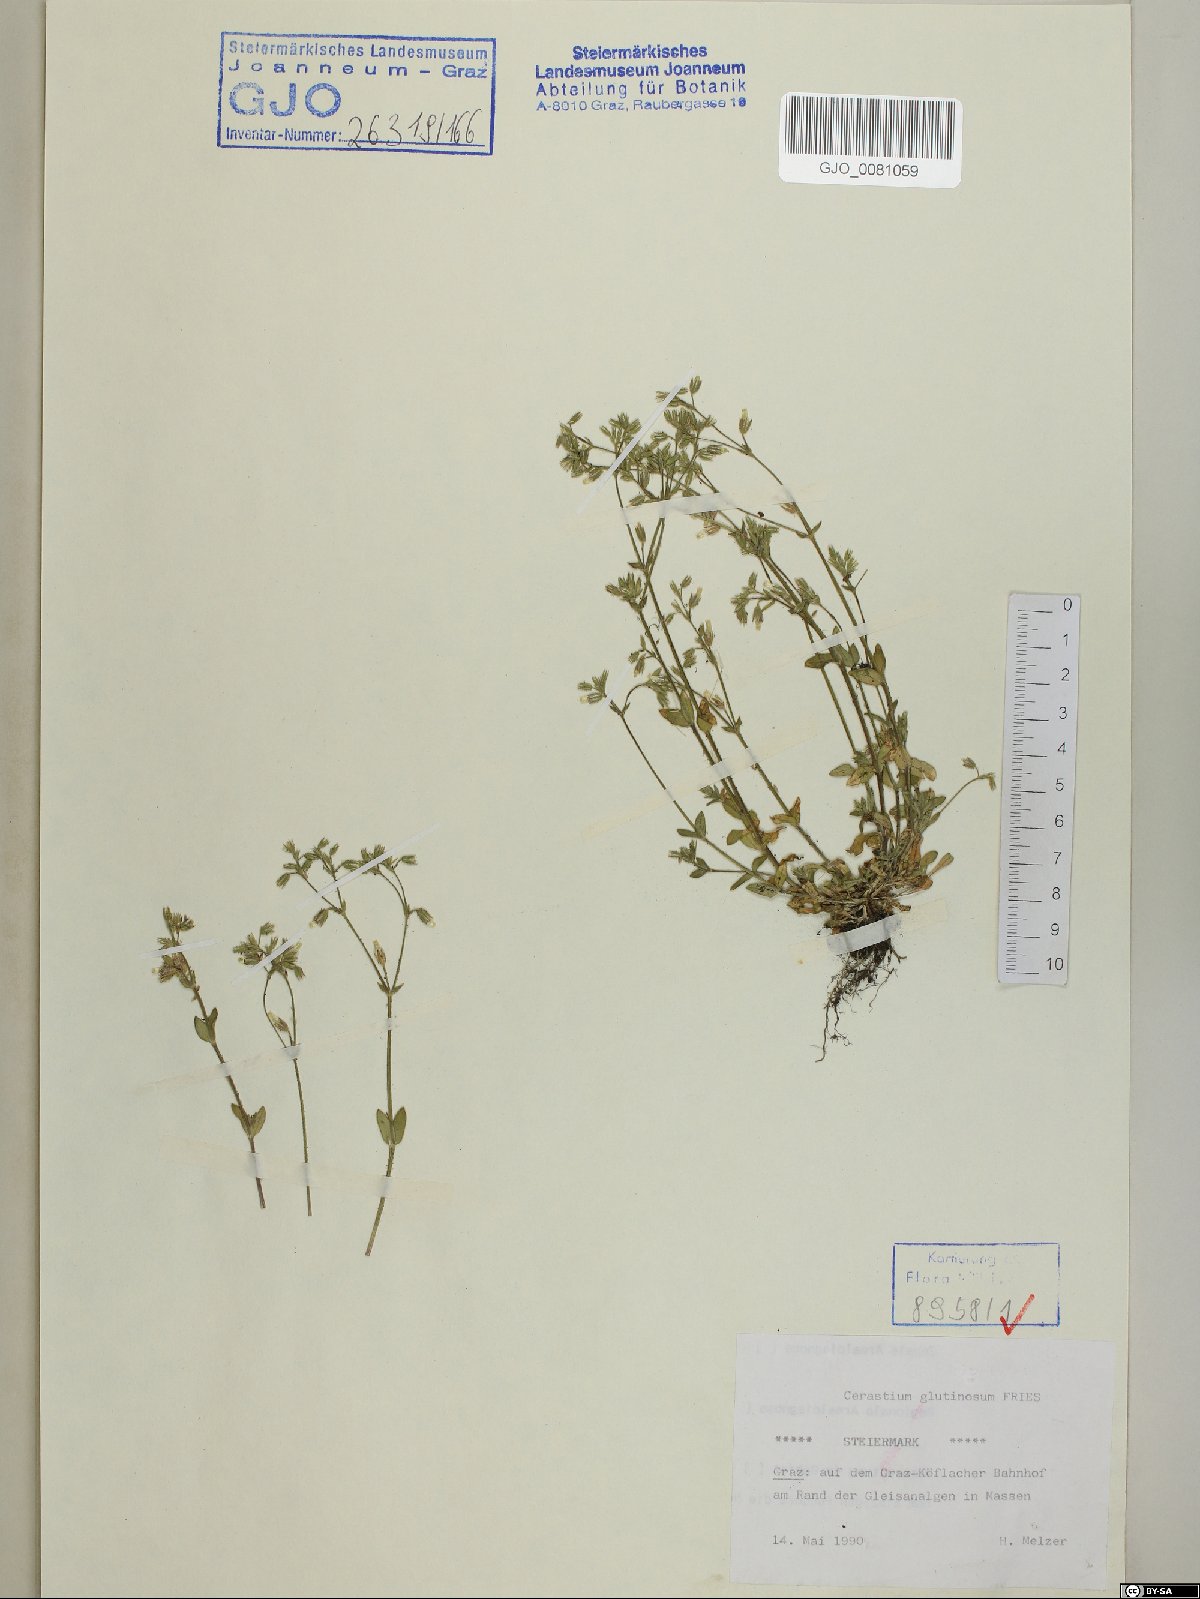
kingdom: Plantae
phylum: Tracheophyta
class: Magnoliopsida
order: Caryophyllales
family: Caryophyllaceae
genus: Cerastium
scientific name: Cerastium glutinosum
